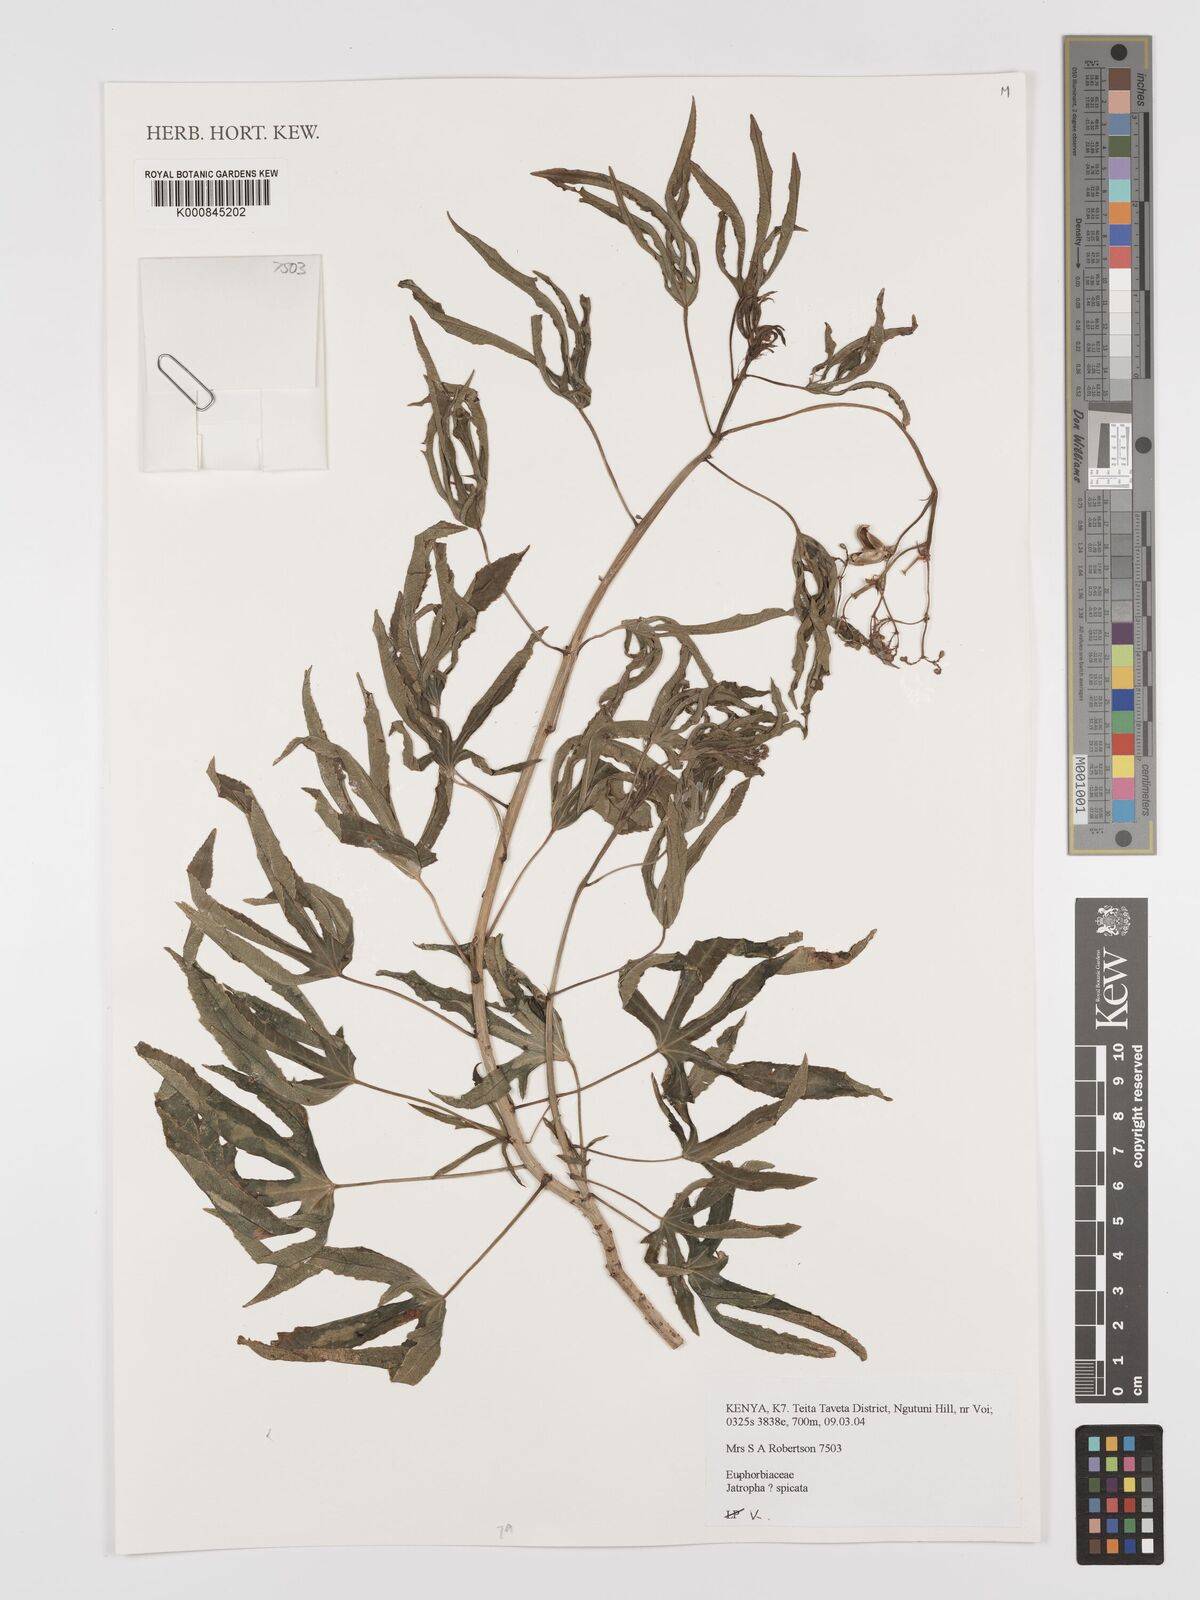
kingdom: Plantae
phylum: Tracheophyta
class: Magnoliopsida
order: Malpighiales
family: Euphorbiaceae
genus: Jatropha
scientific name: Jatropha spicata
